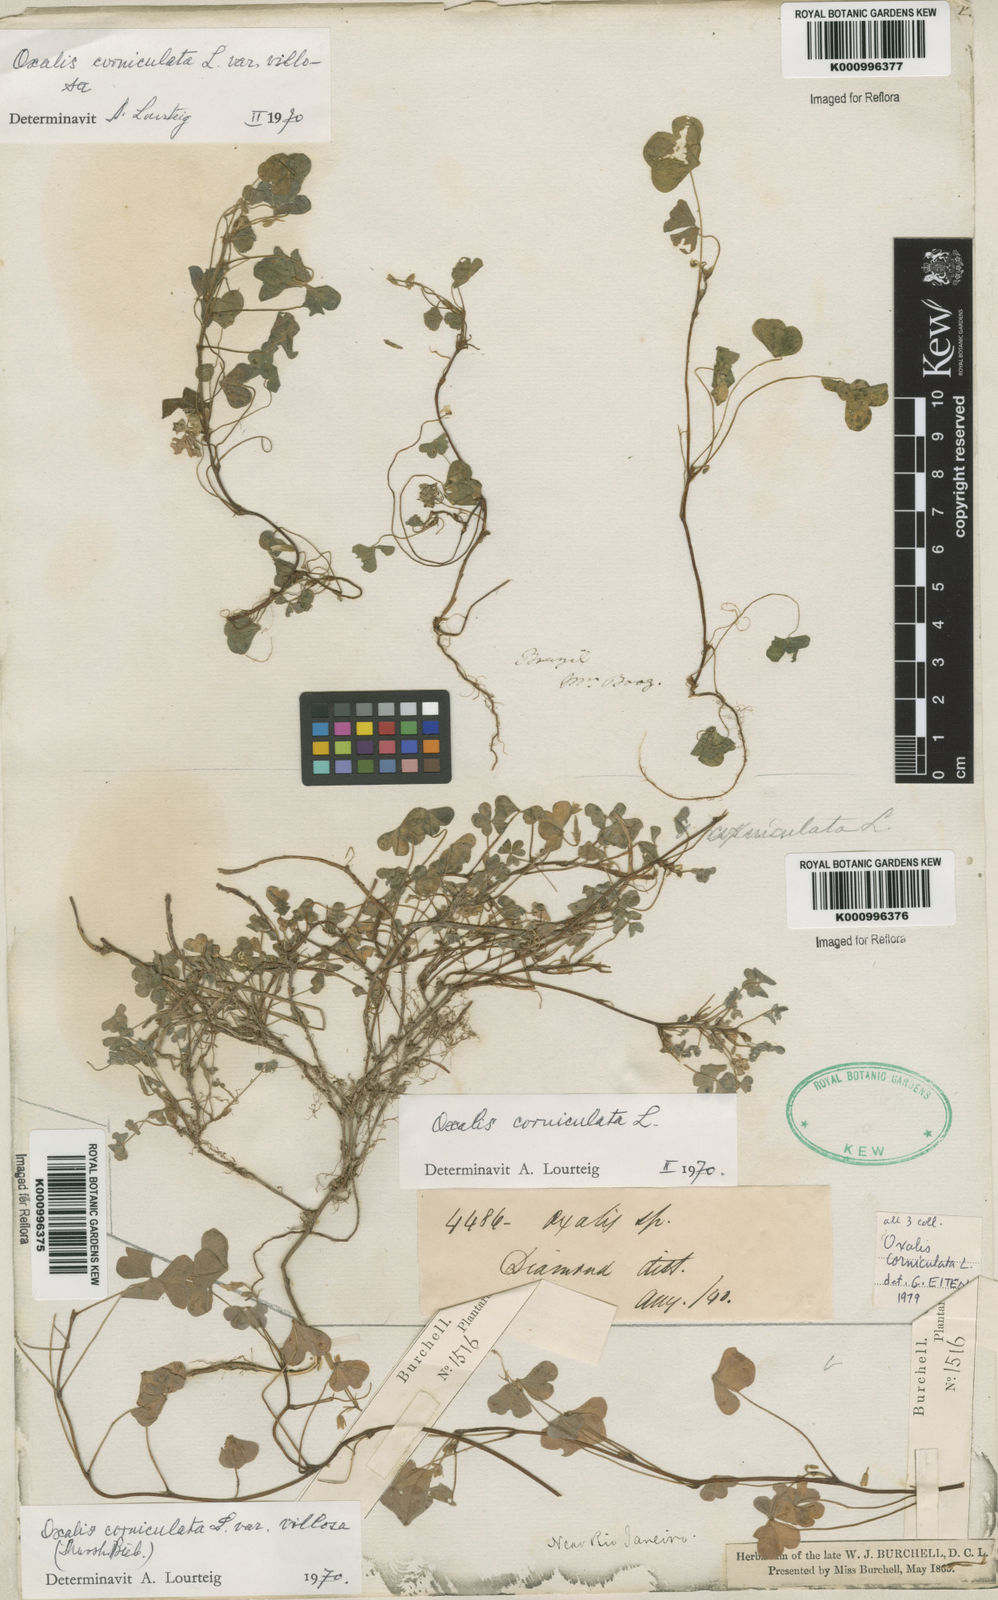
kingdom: Plantae
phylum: Tracheophyta
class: Magnoliopsida
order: Oxalidales
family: Oxalidaceae
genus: Oxalis
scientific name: Oxalis corniculata
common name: Procumbent yellow-sorrel
